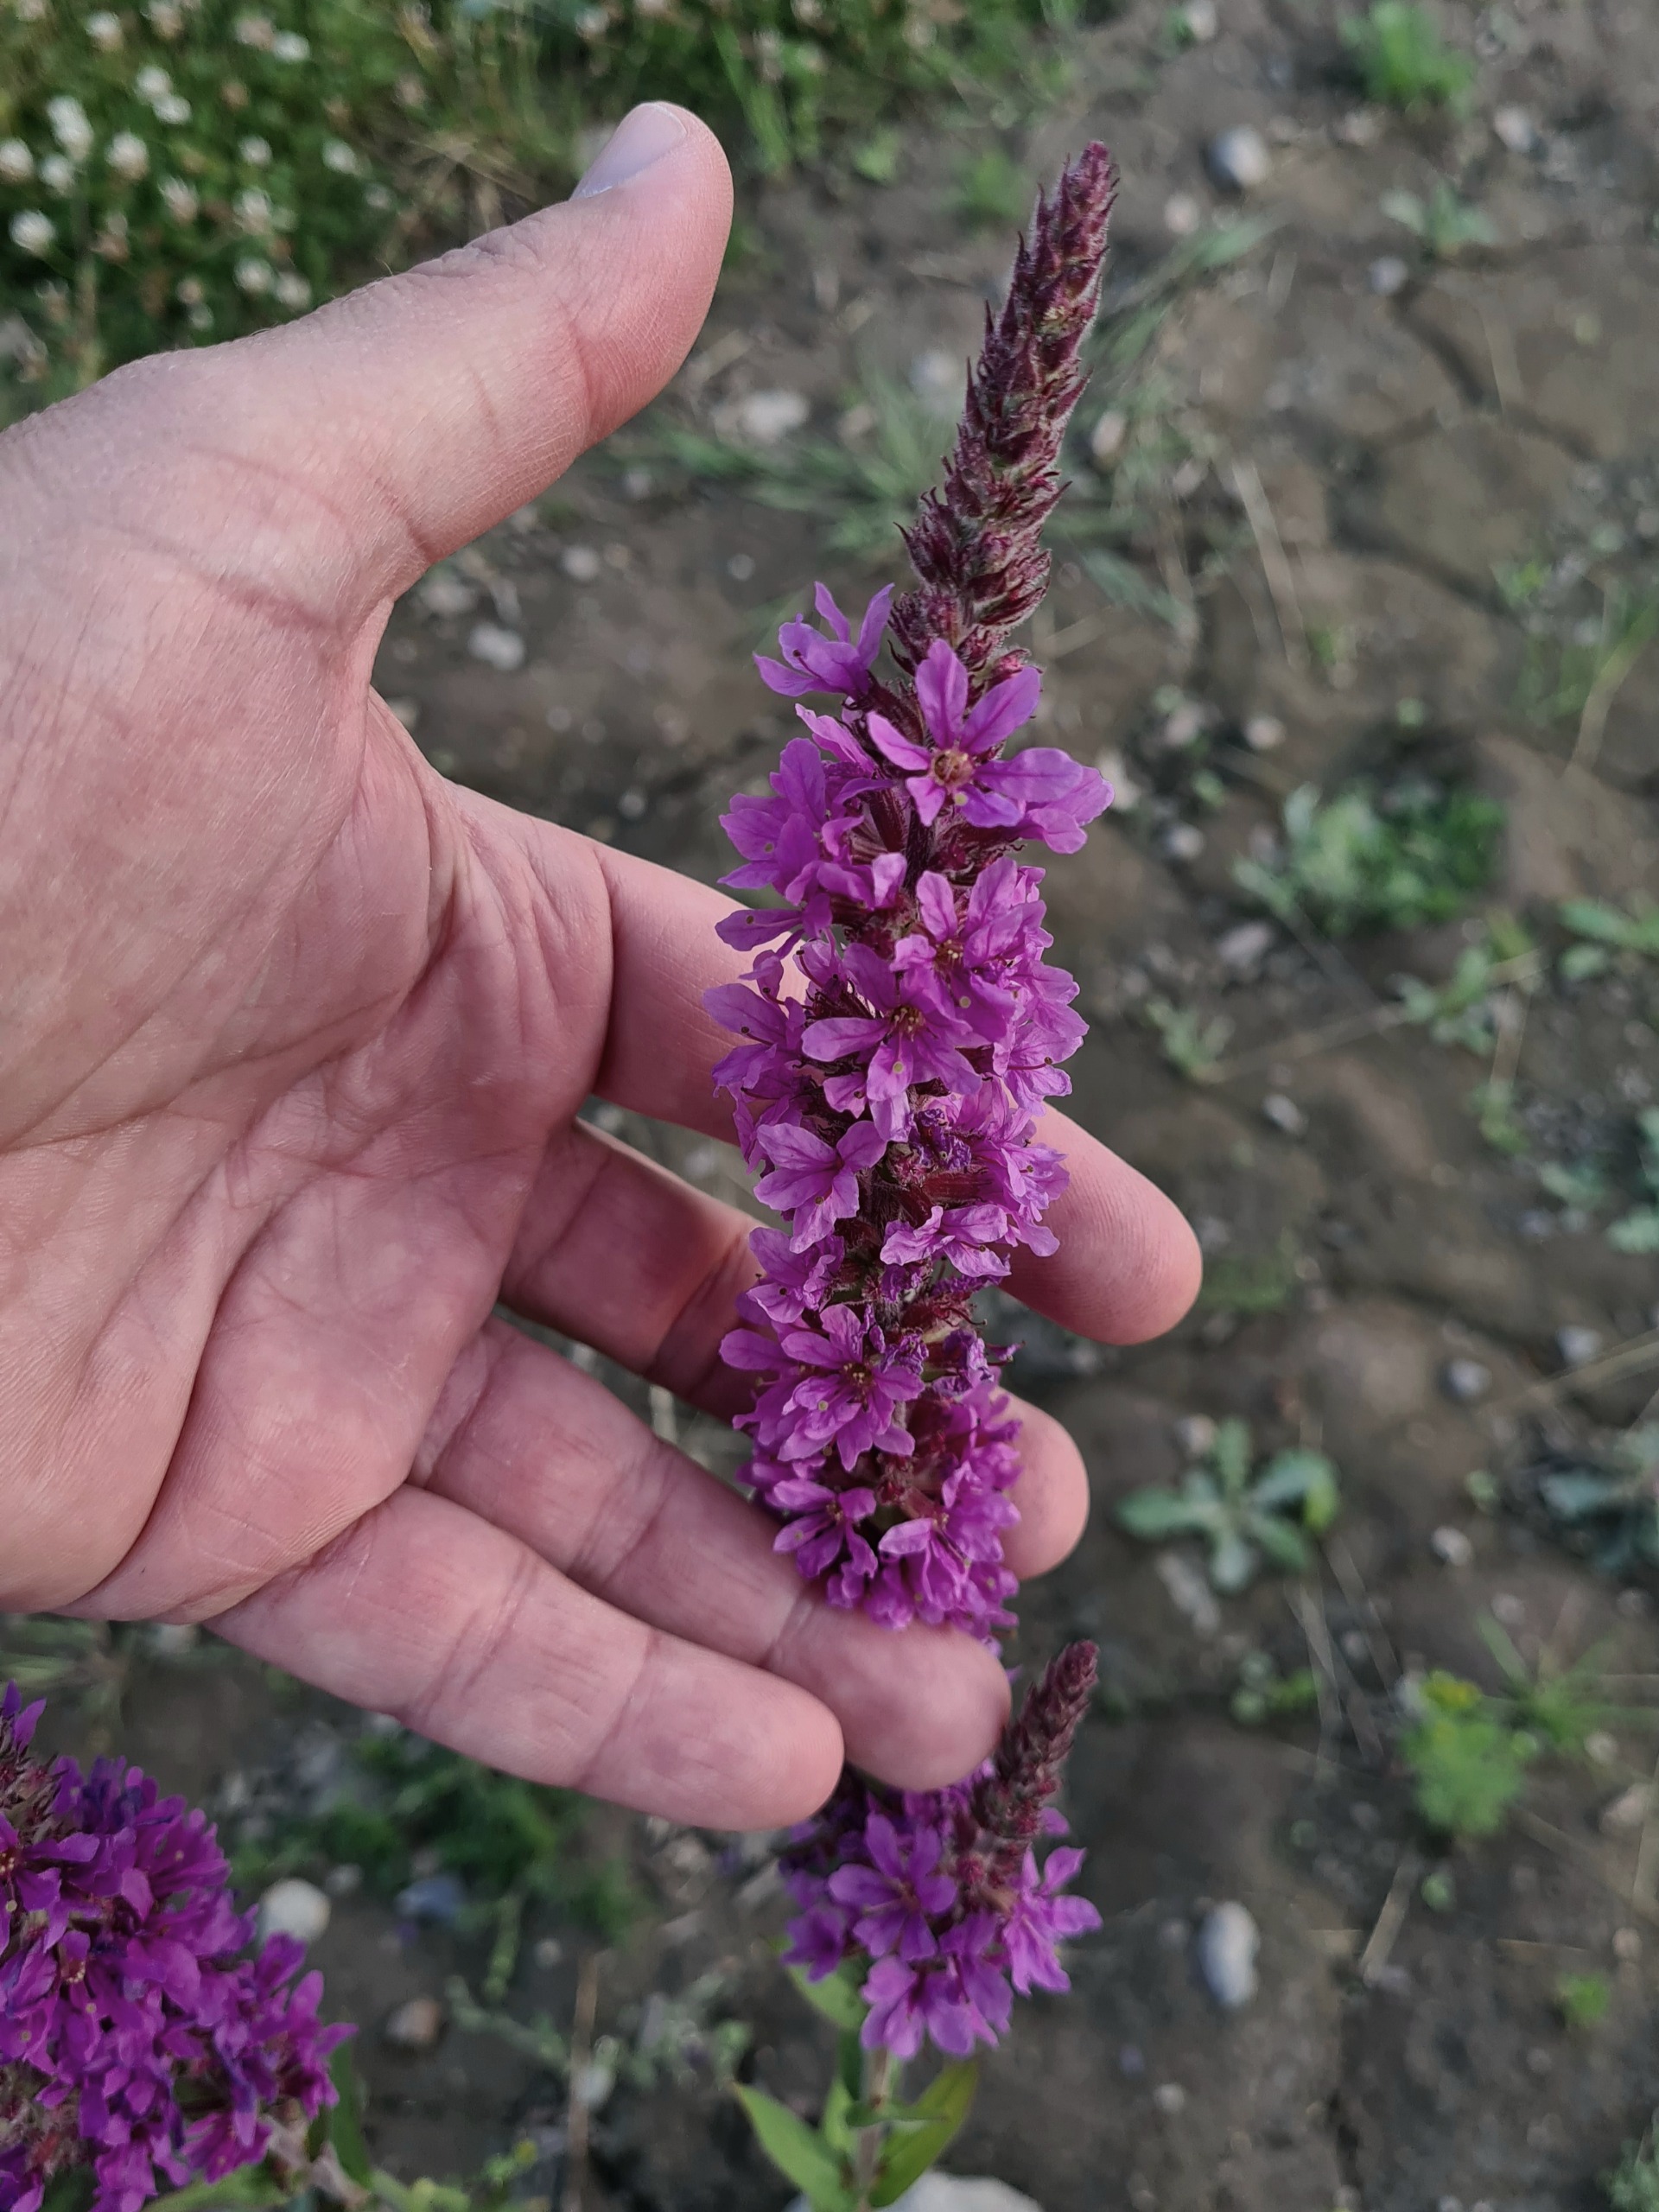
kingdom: Plantae
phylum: Tracheophyta
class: Magnoliopsida
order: Myrtales
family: Lythraceae
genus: Lythrum
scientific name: Lythrum salicaria
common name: Kattehale
